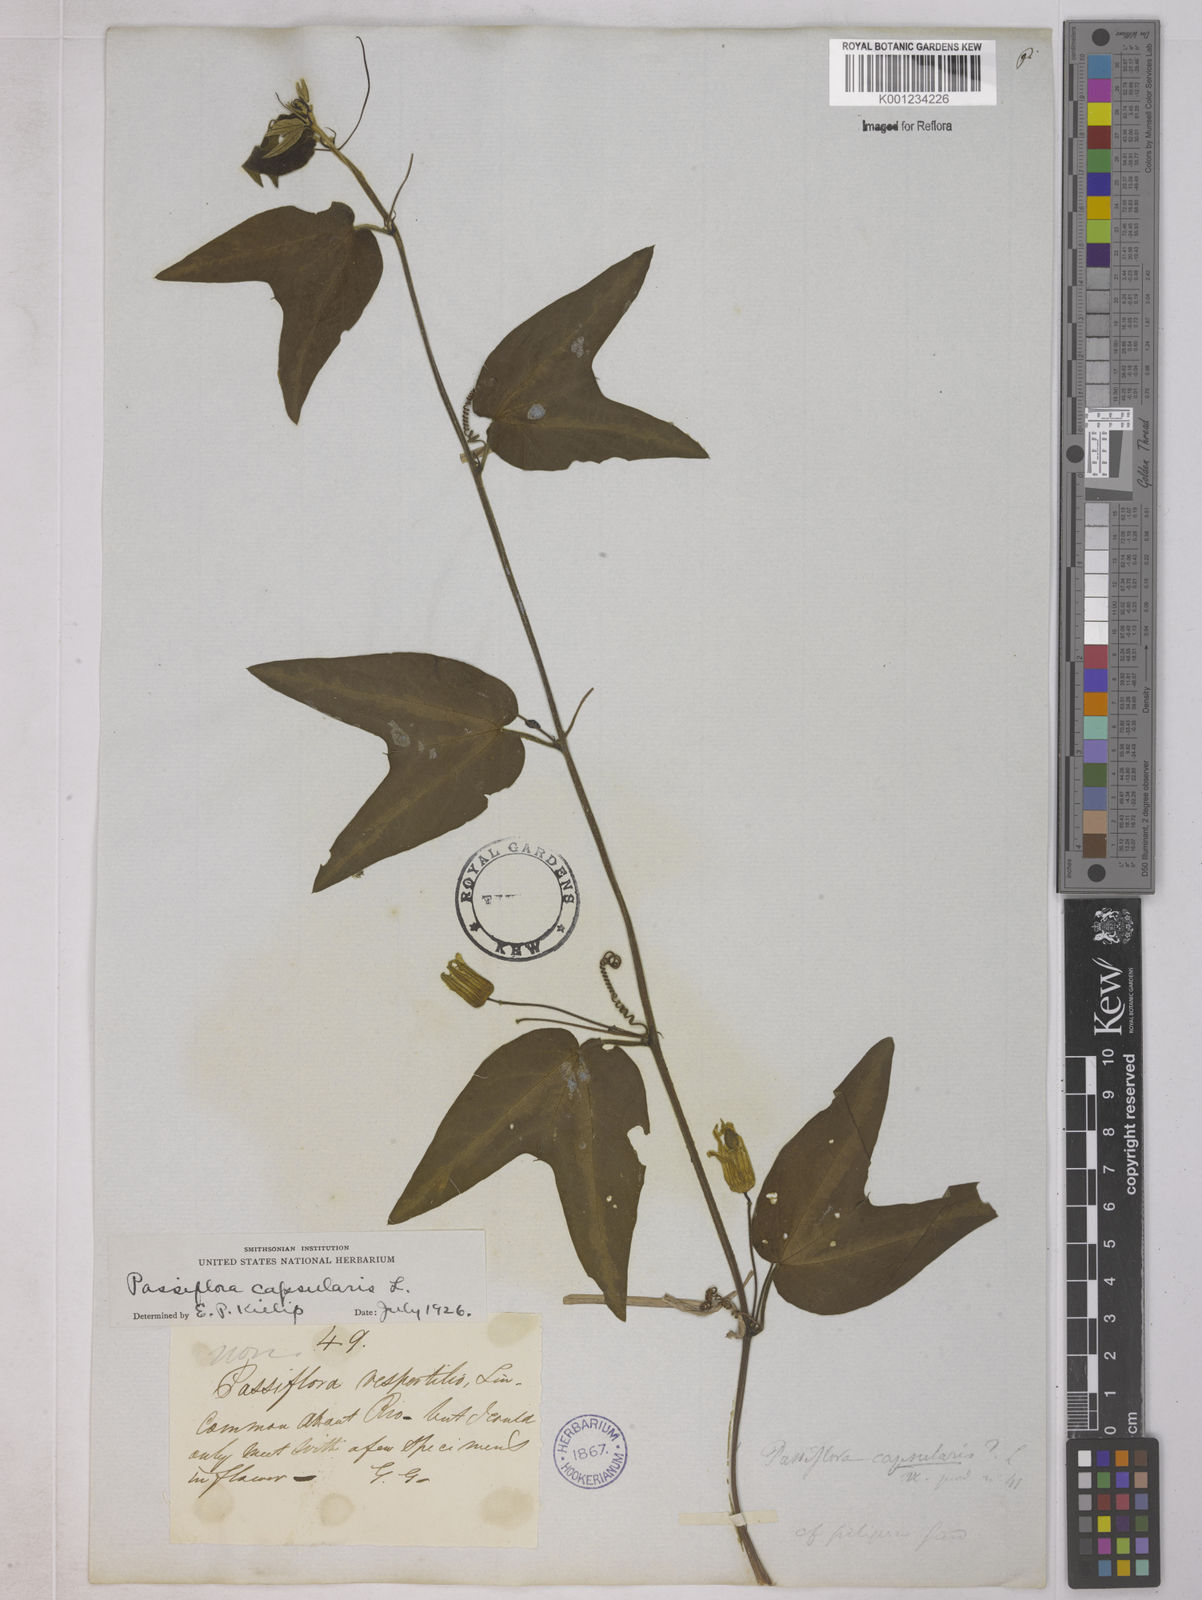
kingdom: Plantae
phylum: Tracheophyta
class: Magnoliopsida
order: Malpighiales
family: Passifloraceae
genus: Passiflora
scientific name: Passiflora capsularis
